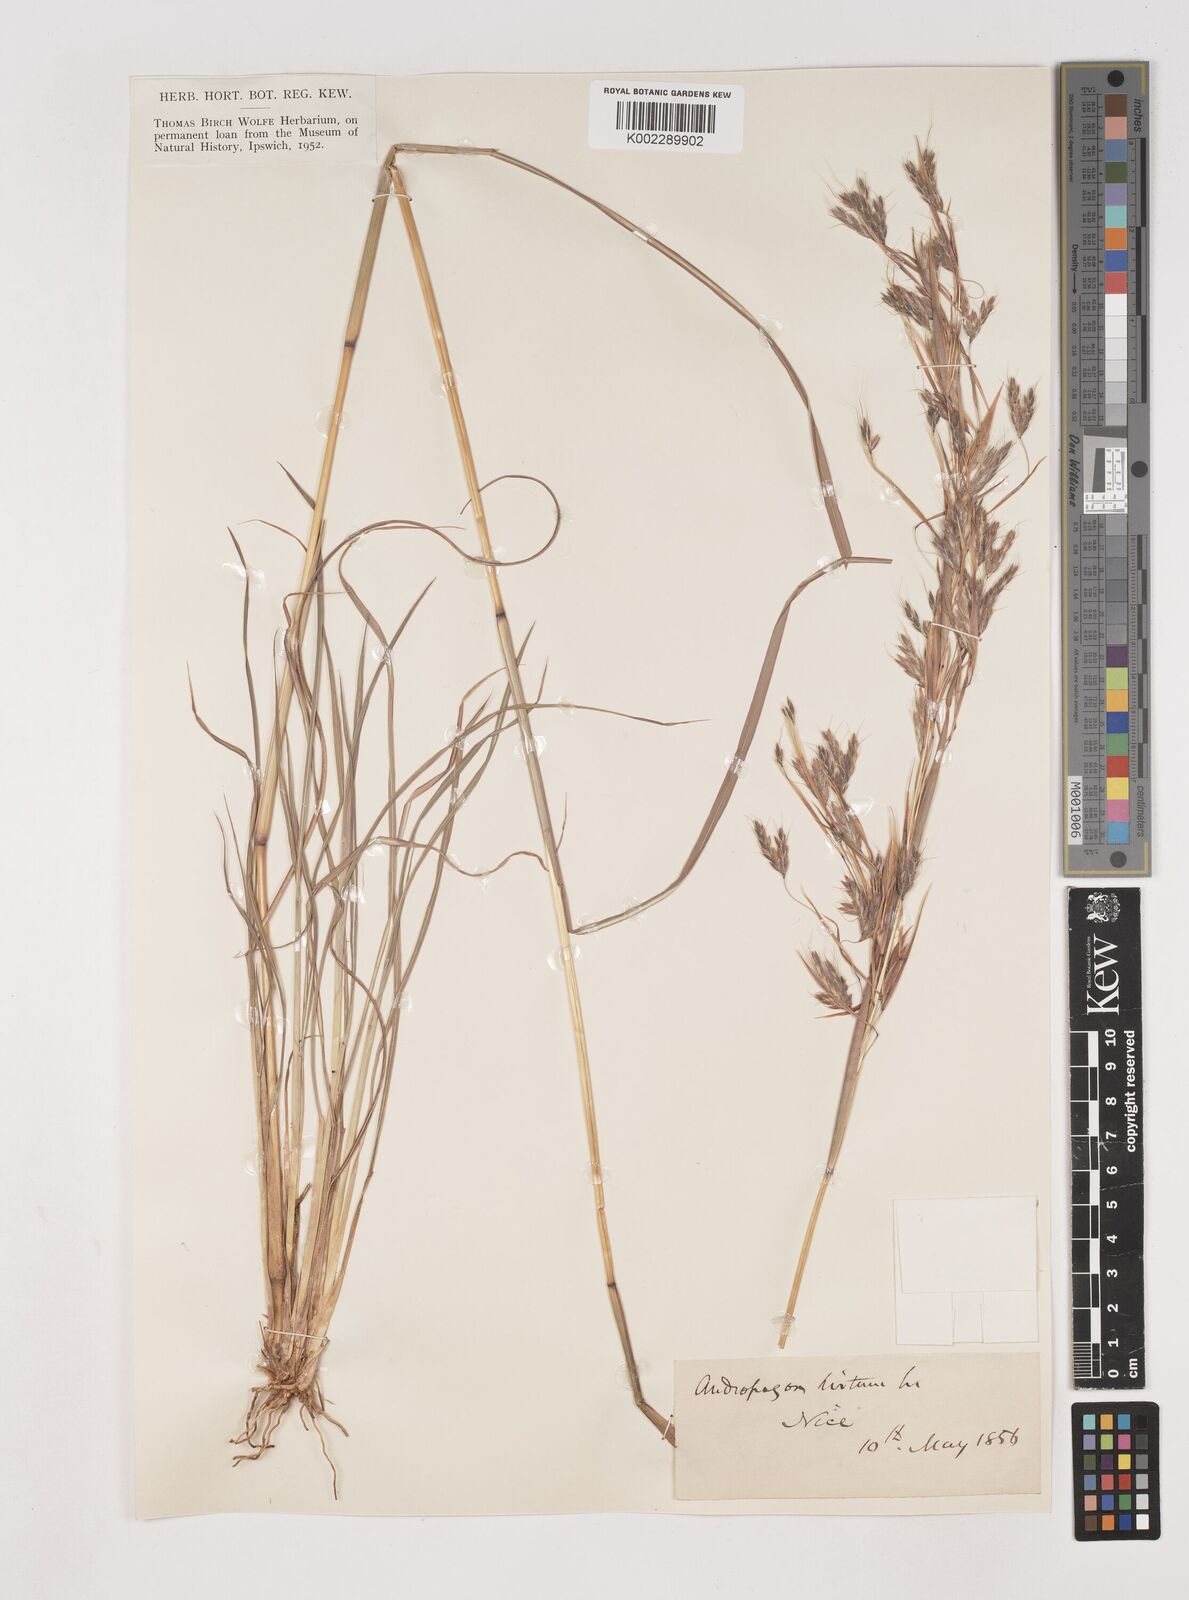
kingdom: Plantae
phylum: Tracheophyta
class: Liliopsida
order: Poales
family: Poaceae
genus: Hyparrhenia
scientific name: Hyparrhenia hirta
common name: Thatching grass
